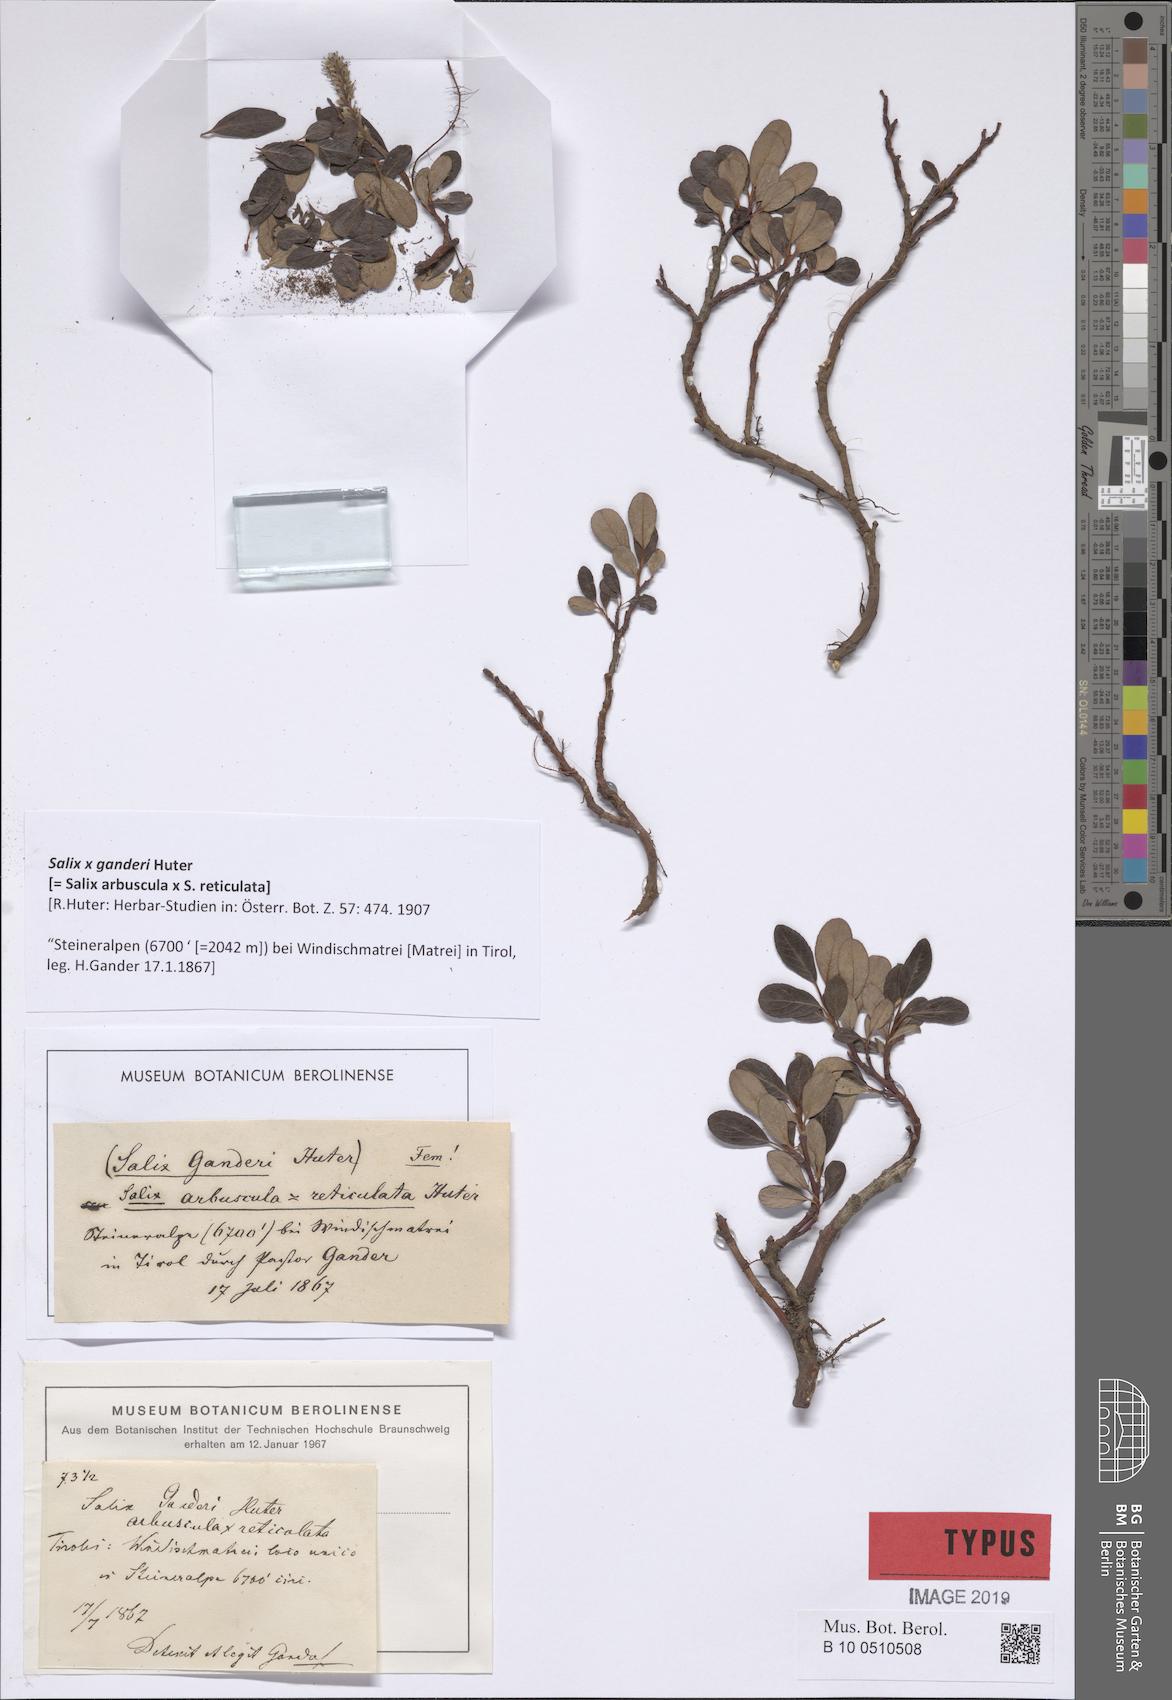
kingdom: Plantae
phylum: Tracheophyta
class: Magnoliopsida
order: Malpighiales
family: Salicaceae
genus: Salix
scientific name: Salix ganderi
